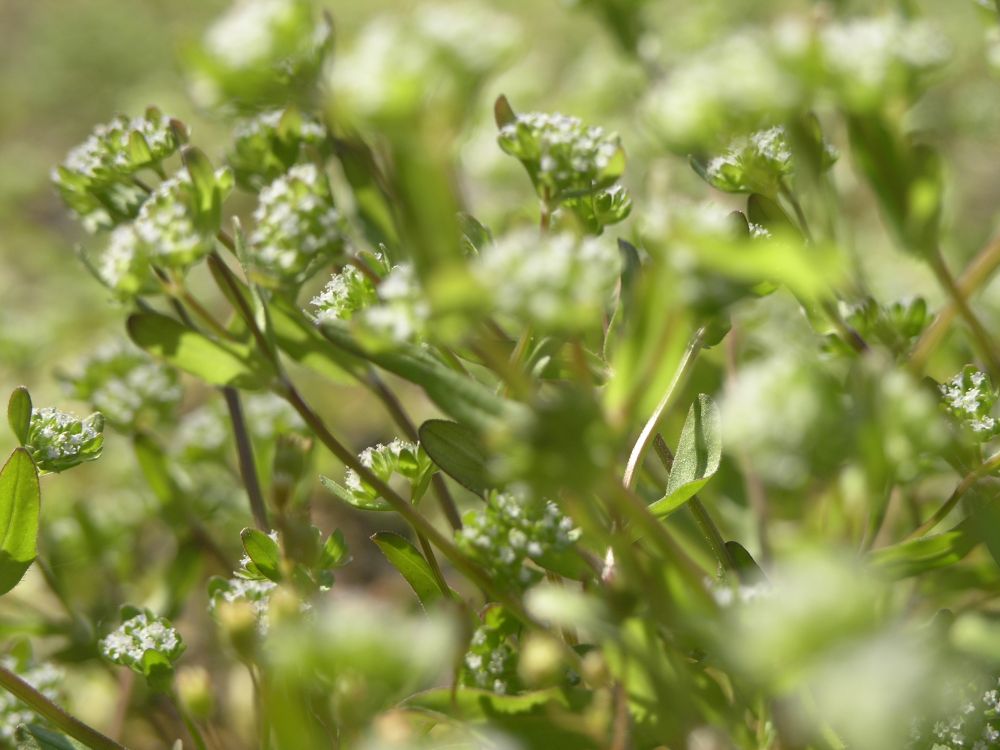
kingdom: Plantae
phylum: Tracheophyta
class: Magnoliopsida
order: Dipsacales
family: Caprifoliaceae
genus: Valerianella
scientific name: Valerianella locusta
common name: Common cornsalad
